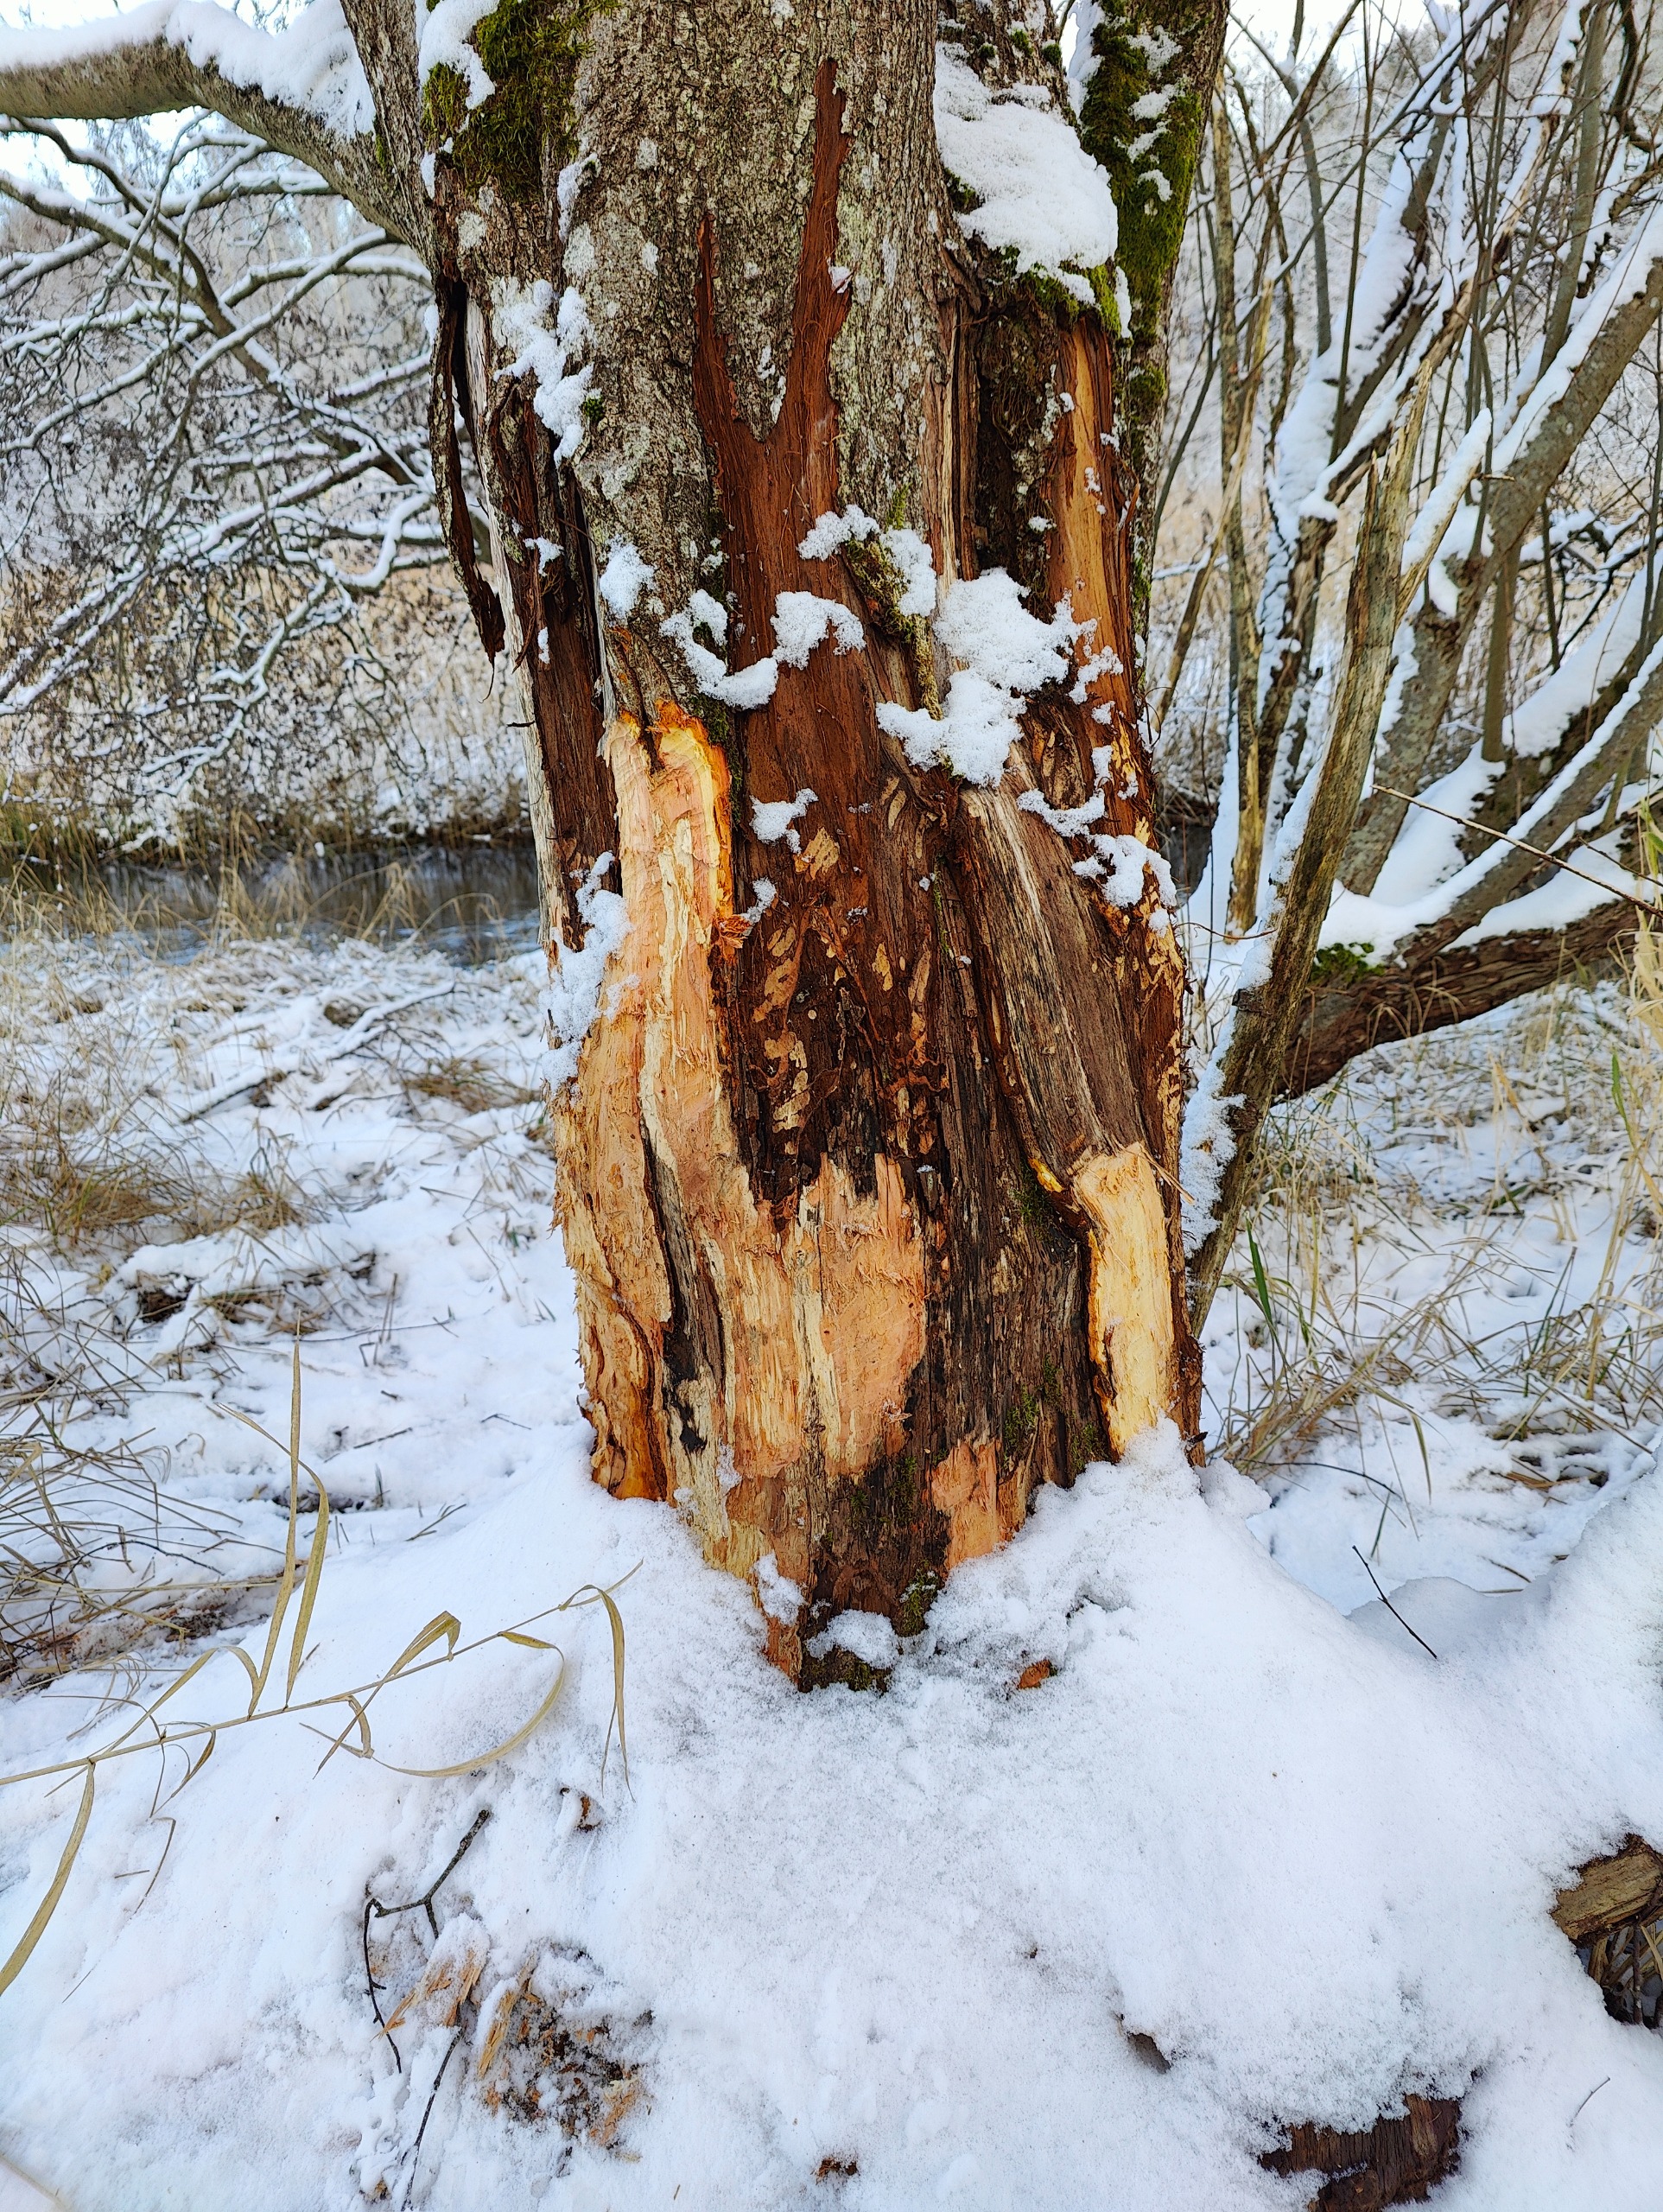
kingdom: Animalia
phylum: Chordata
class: Mammalia
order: Rodentia
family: Castoridae
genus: Castor
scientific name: Castor fiber
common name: Bæver
